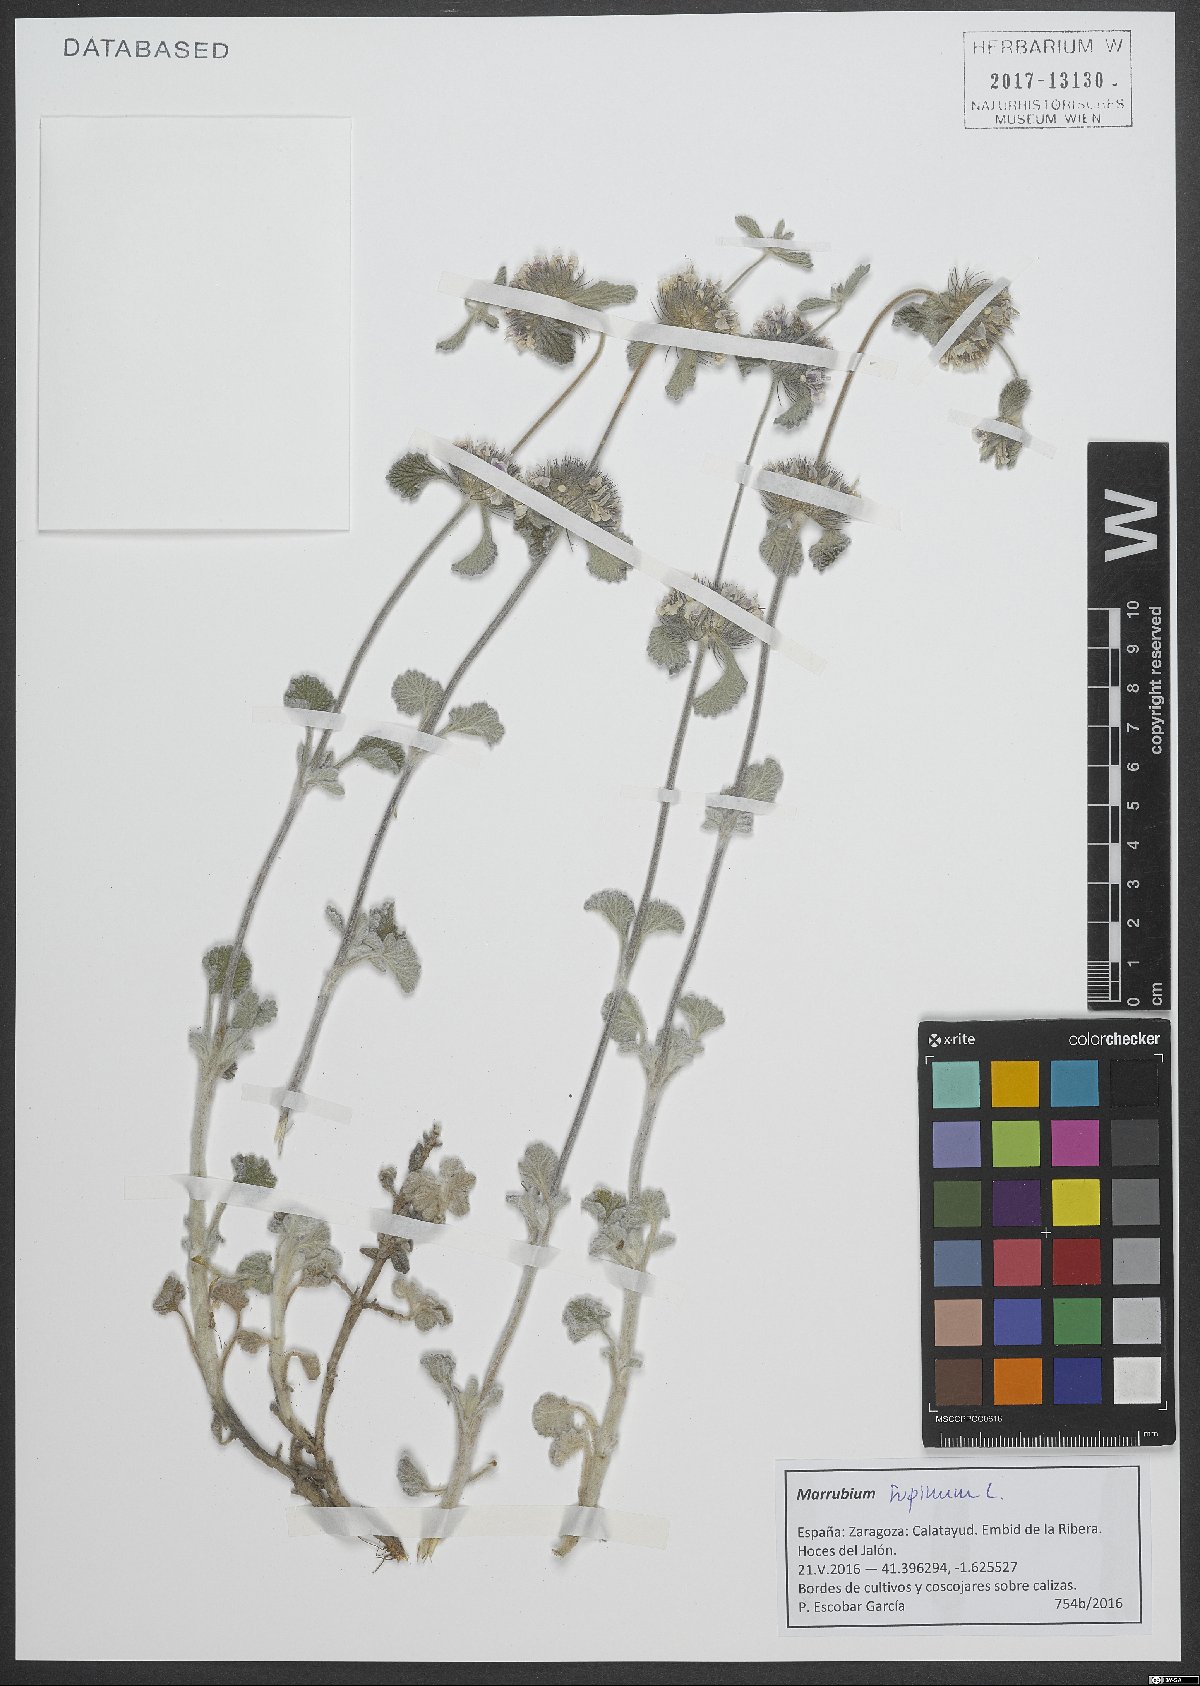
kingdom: Plantae
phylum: Tracheophyta
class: Magnoliopsida
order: Lamiales
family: Lamiaceae
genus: Marrubium
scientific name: Marrubium supinum
